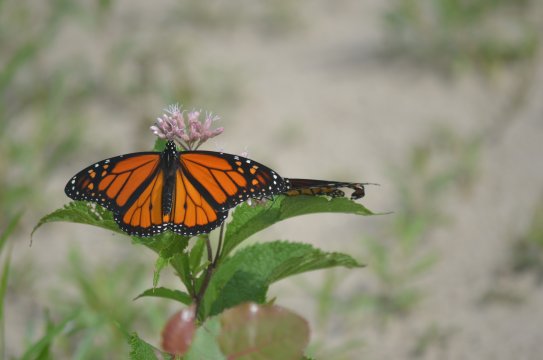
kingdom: Animalia
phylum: Arthropoda
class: Insecta
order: Lepidoptera
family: Nymphalidae
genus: Danaus
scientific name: Danaus plexippus
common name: Monarch
